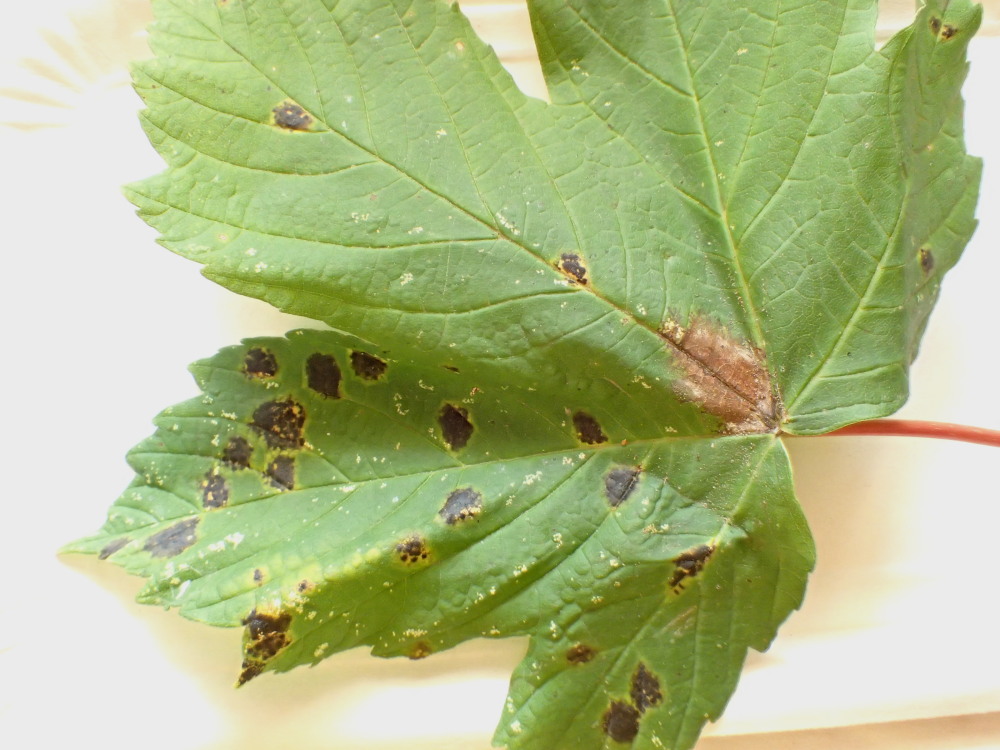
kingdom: Fungi
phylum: Ascomycota
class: Leotiomycetes
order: Rhytismatales
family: Rhytismataceae
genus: Rhytisma
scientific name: Rhytisma acerinum
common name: ahorn-rynkeplet
